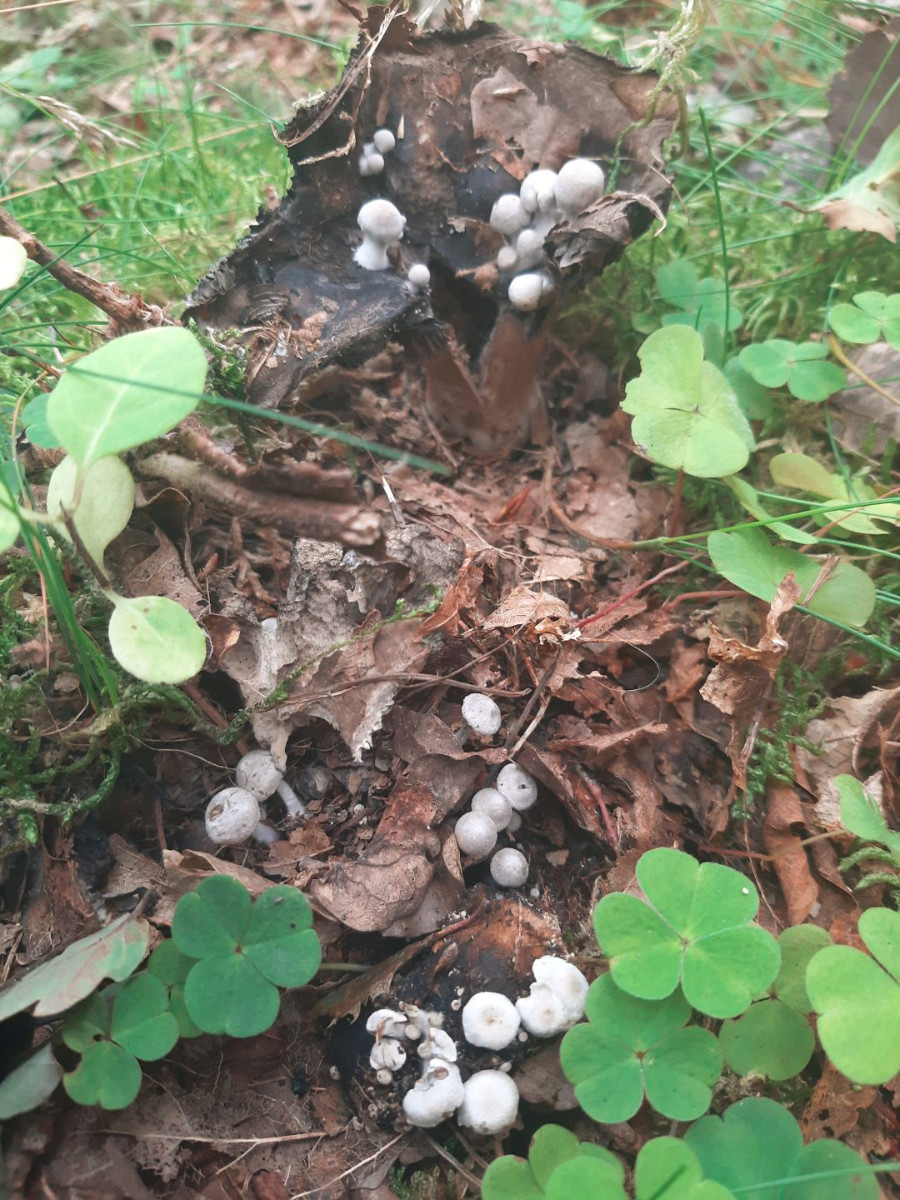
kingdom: Fungi
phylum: Basidiomycota
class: Agaricomycetes
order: Agaricales
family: Lyophyllaceae
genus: Asterophora
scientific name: Asterophora parasitica
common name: grå snyltehat
